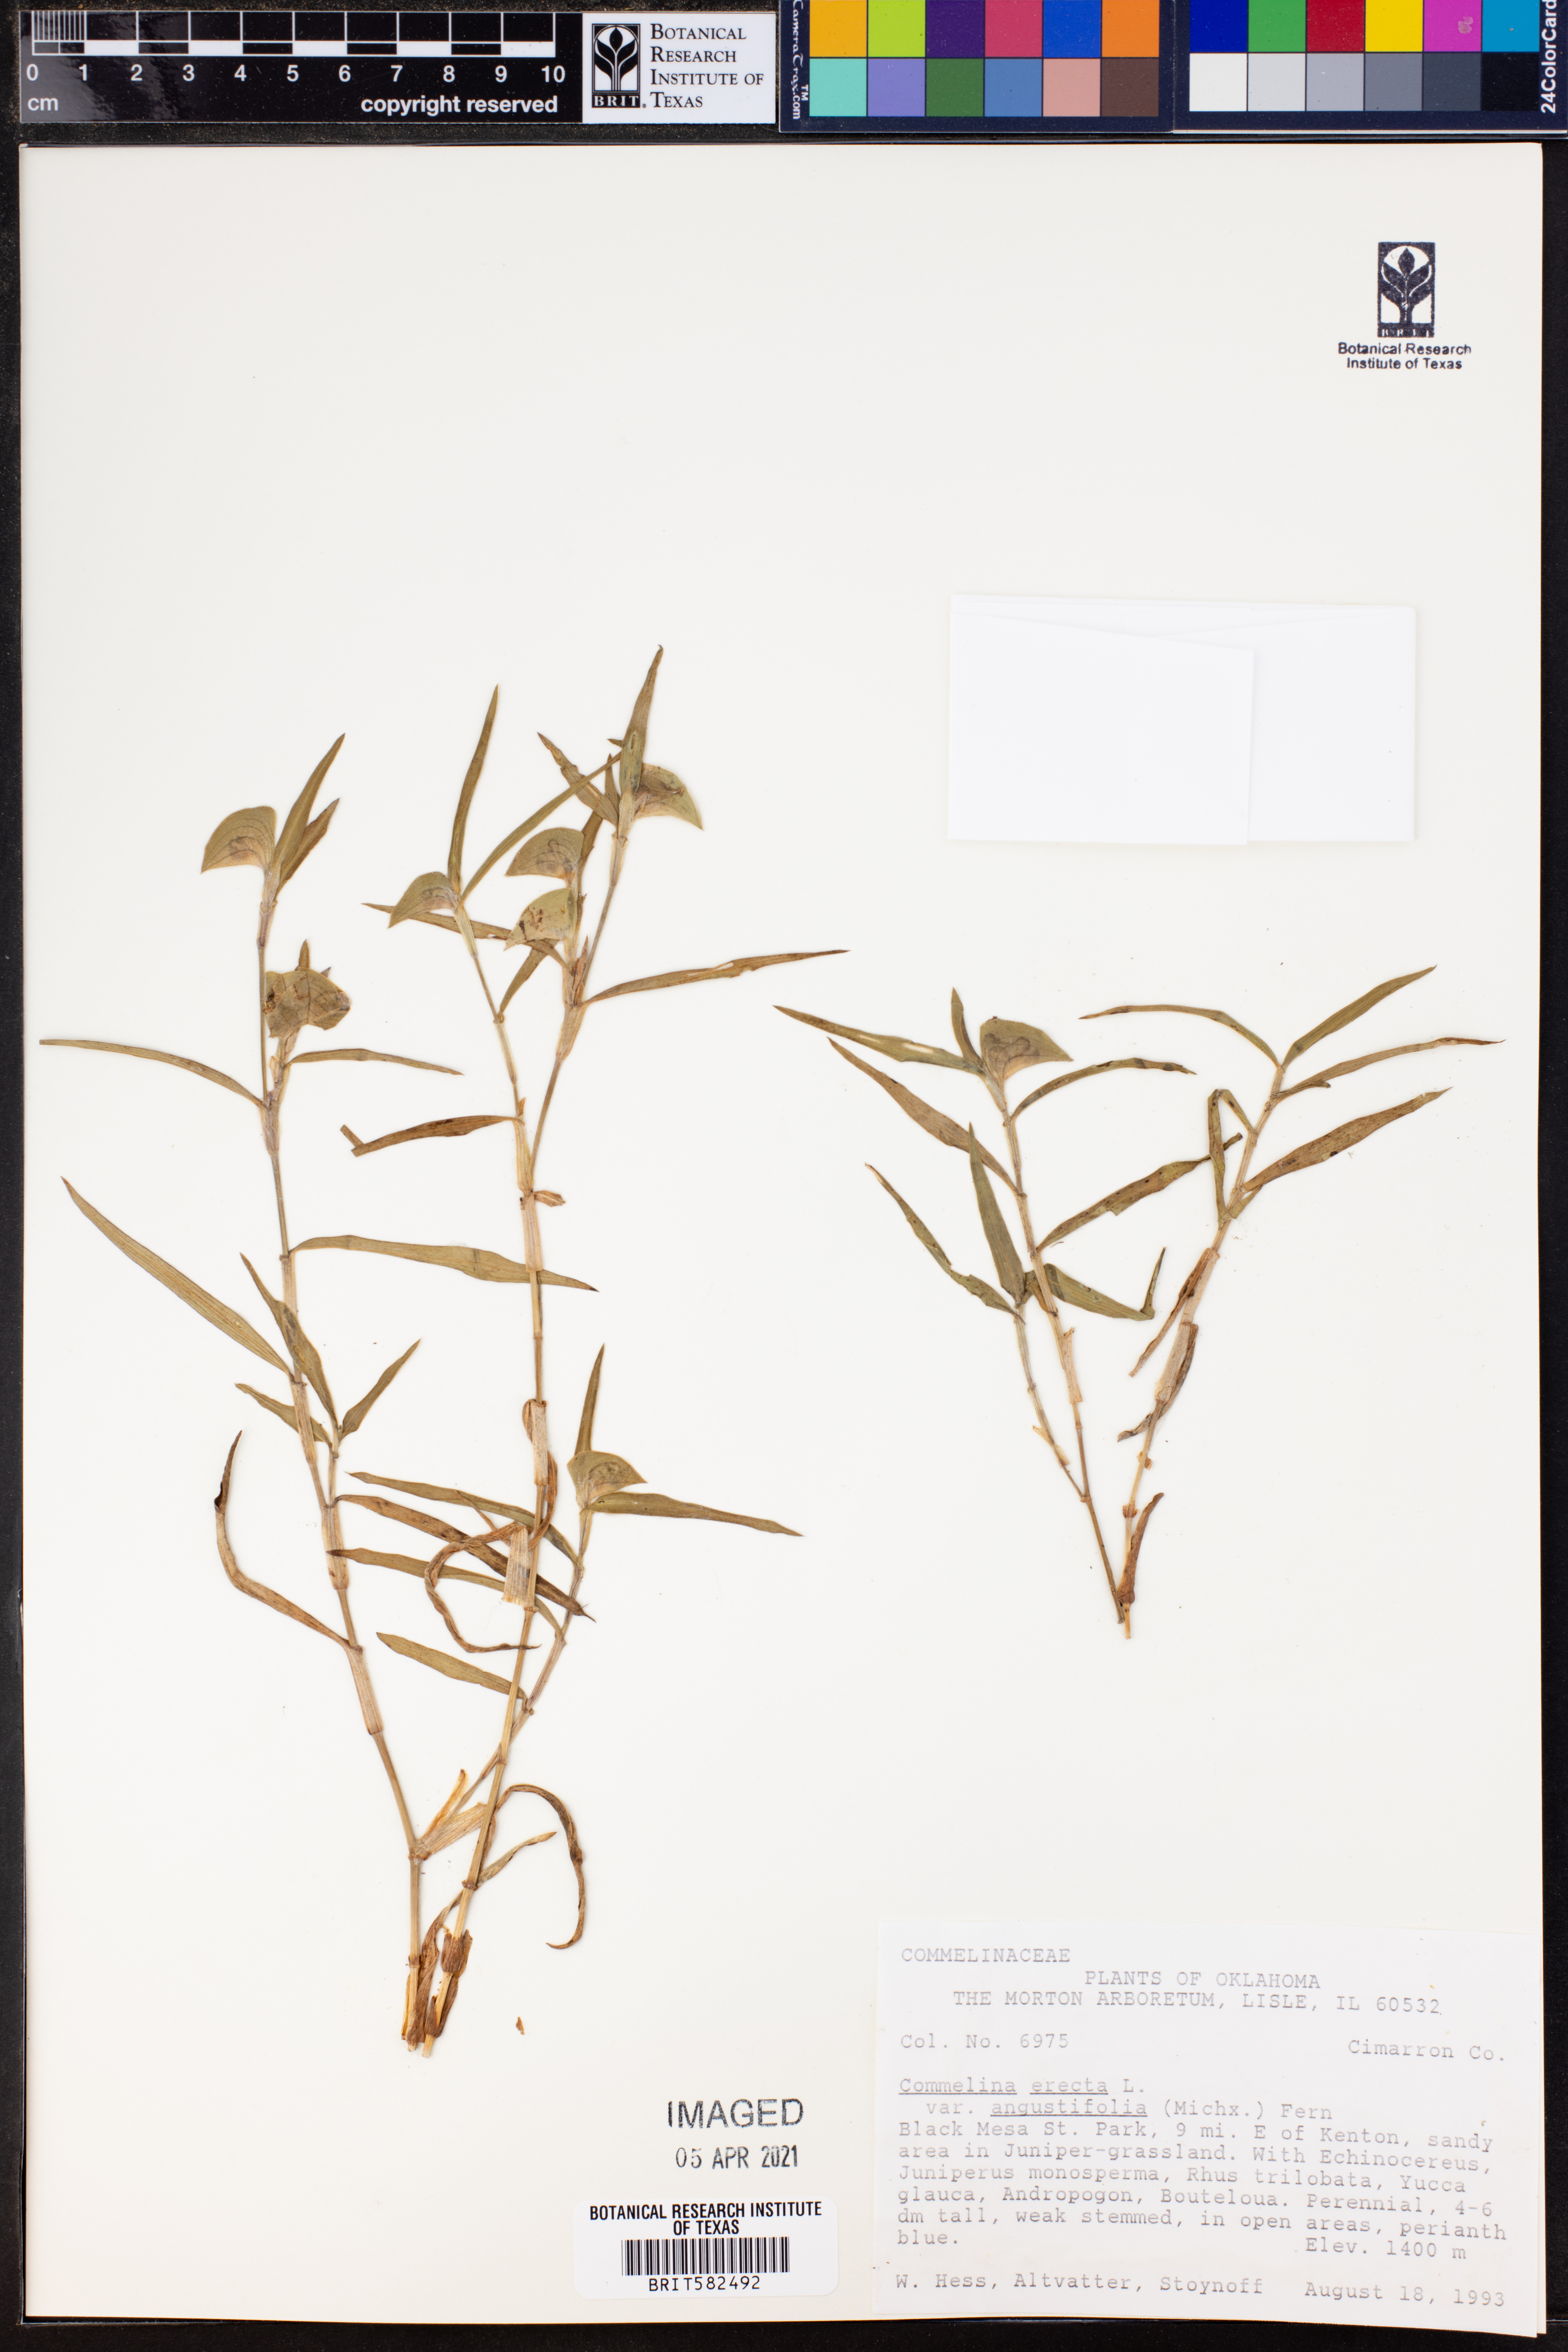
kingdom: Plantae
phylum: Tracheophyta
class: Liliopsida
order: Commelinales
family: Commelinaceae
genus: Commelina
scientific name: Commelina erecta
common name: Blousel blommetjie
